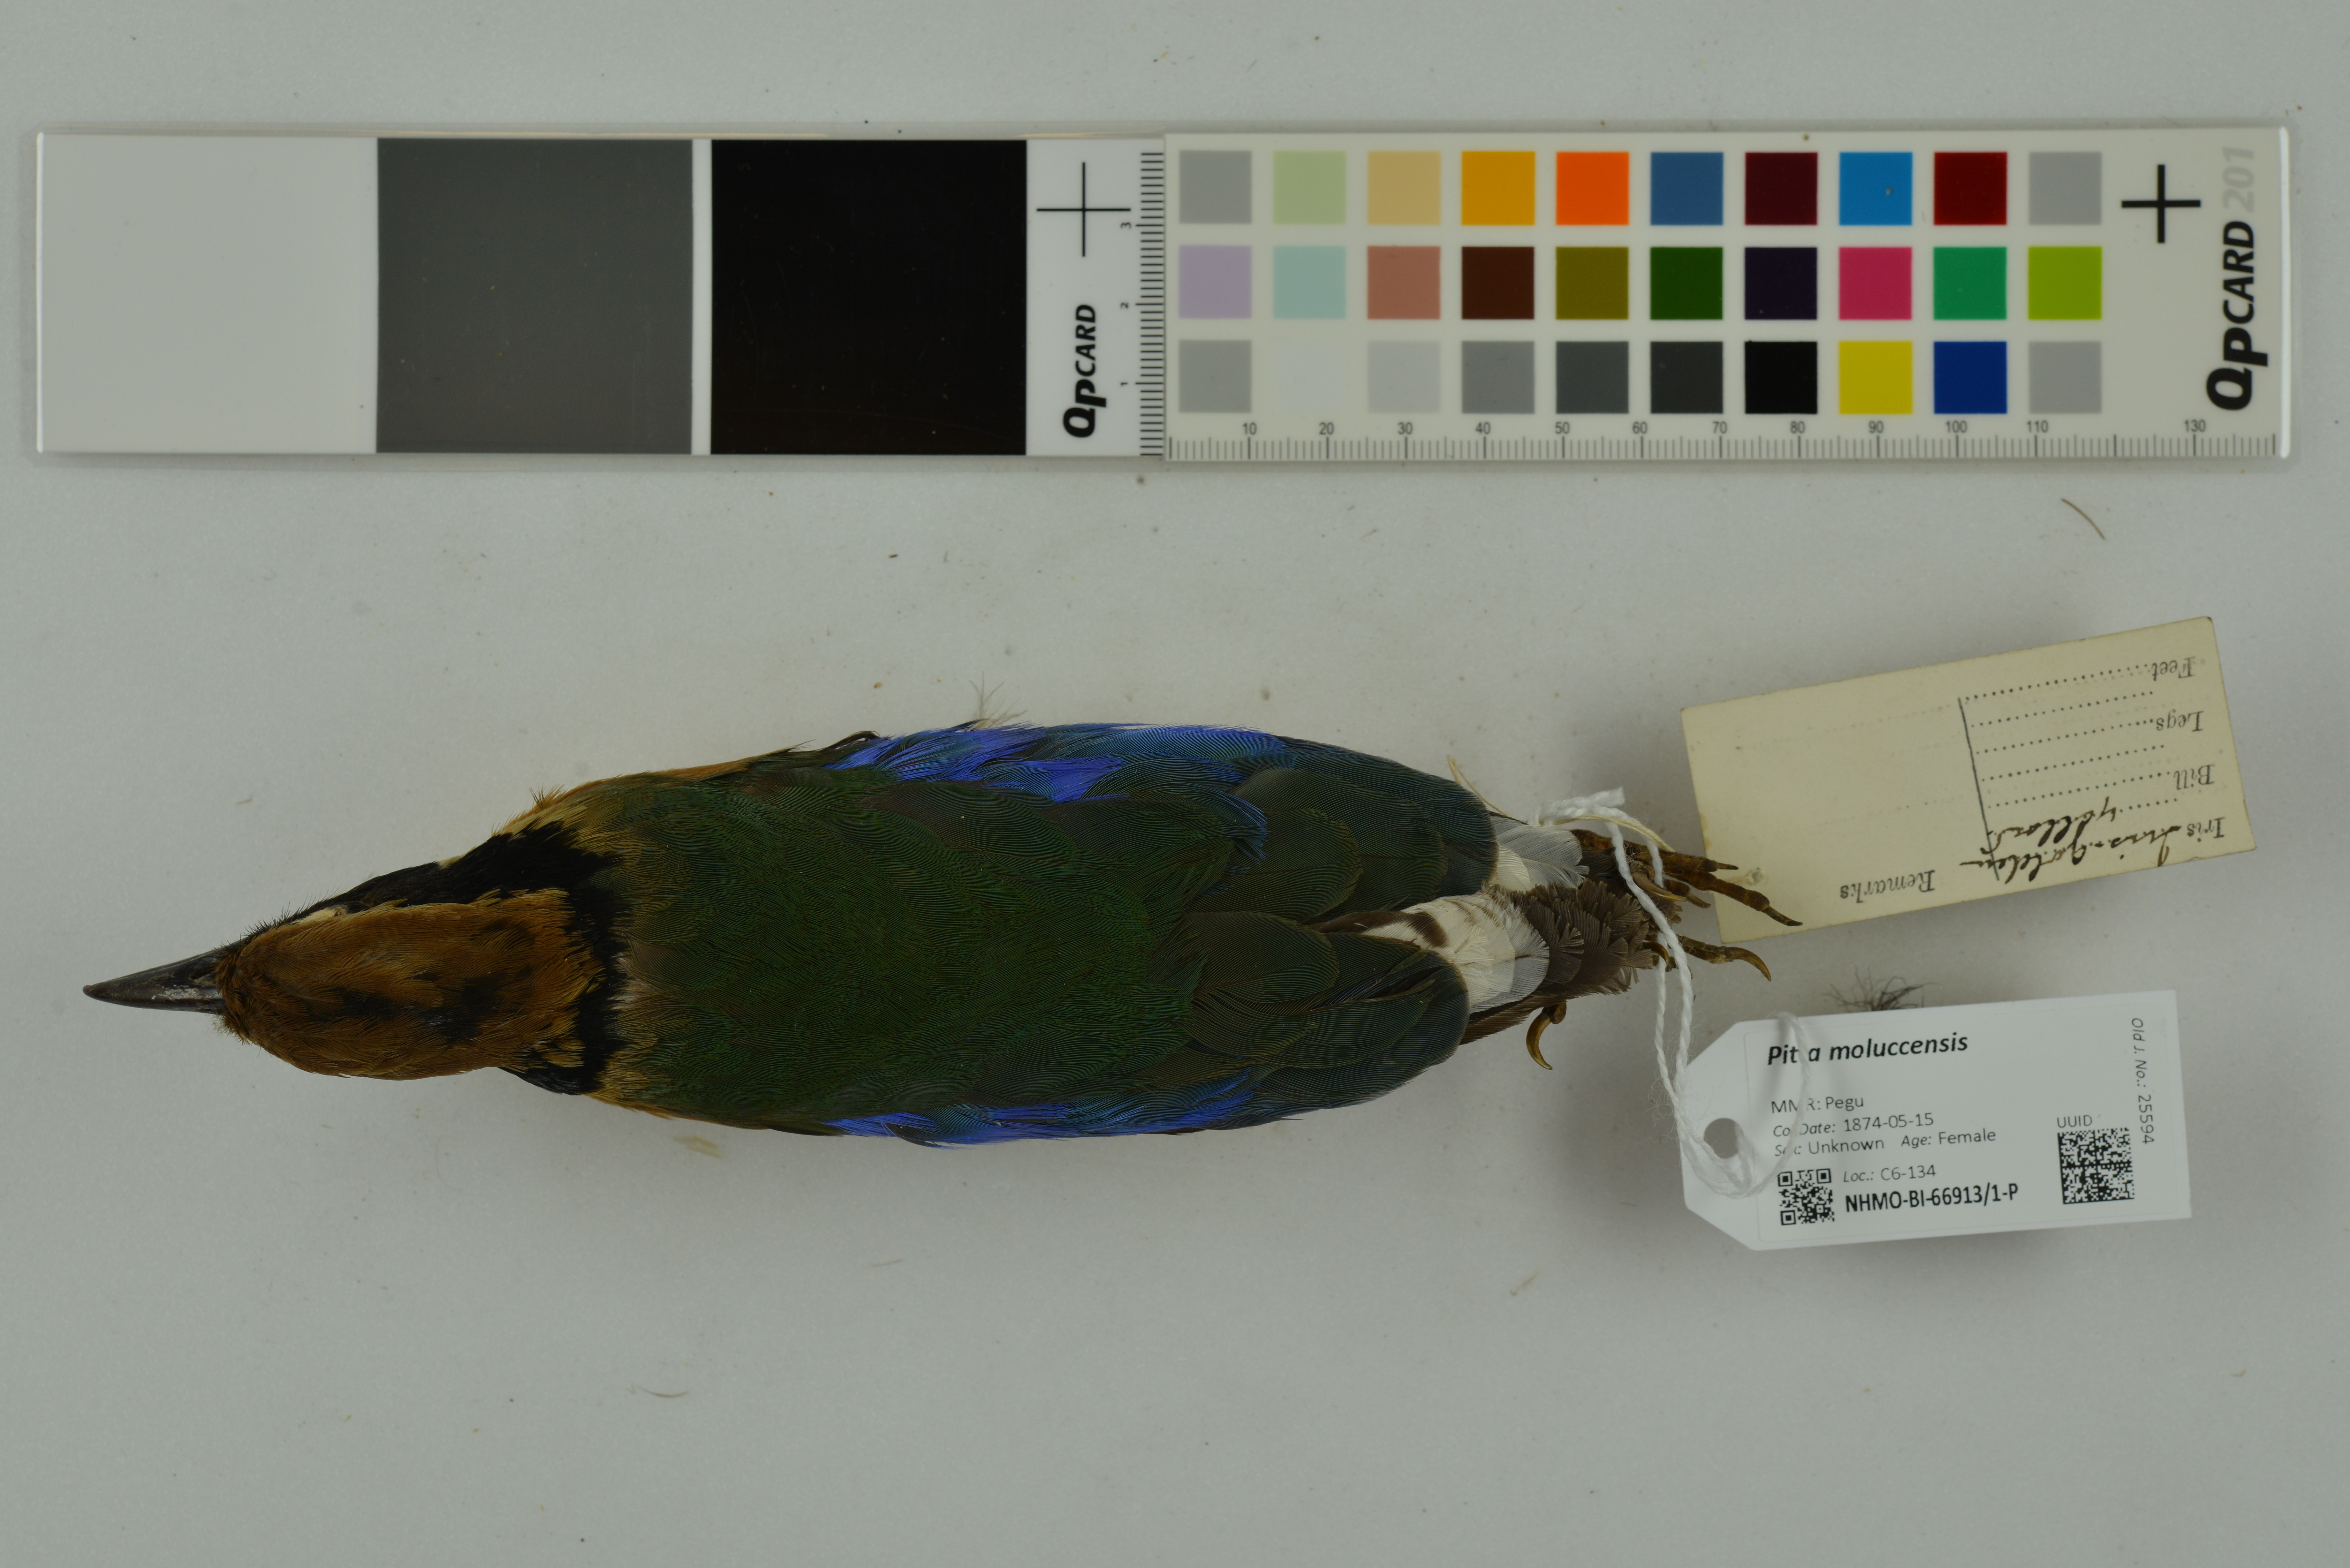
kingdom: Animalia
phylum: Chordata
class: Aves
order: Passeriformes
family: Pittidae
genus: Pitta
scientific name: Pitta moluccensis
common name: Blue-winged pitta
